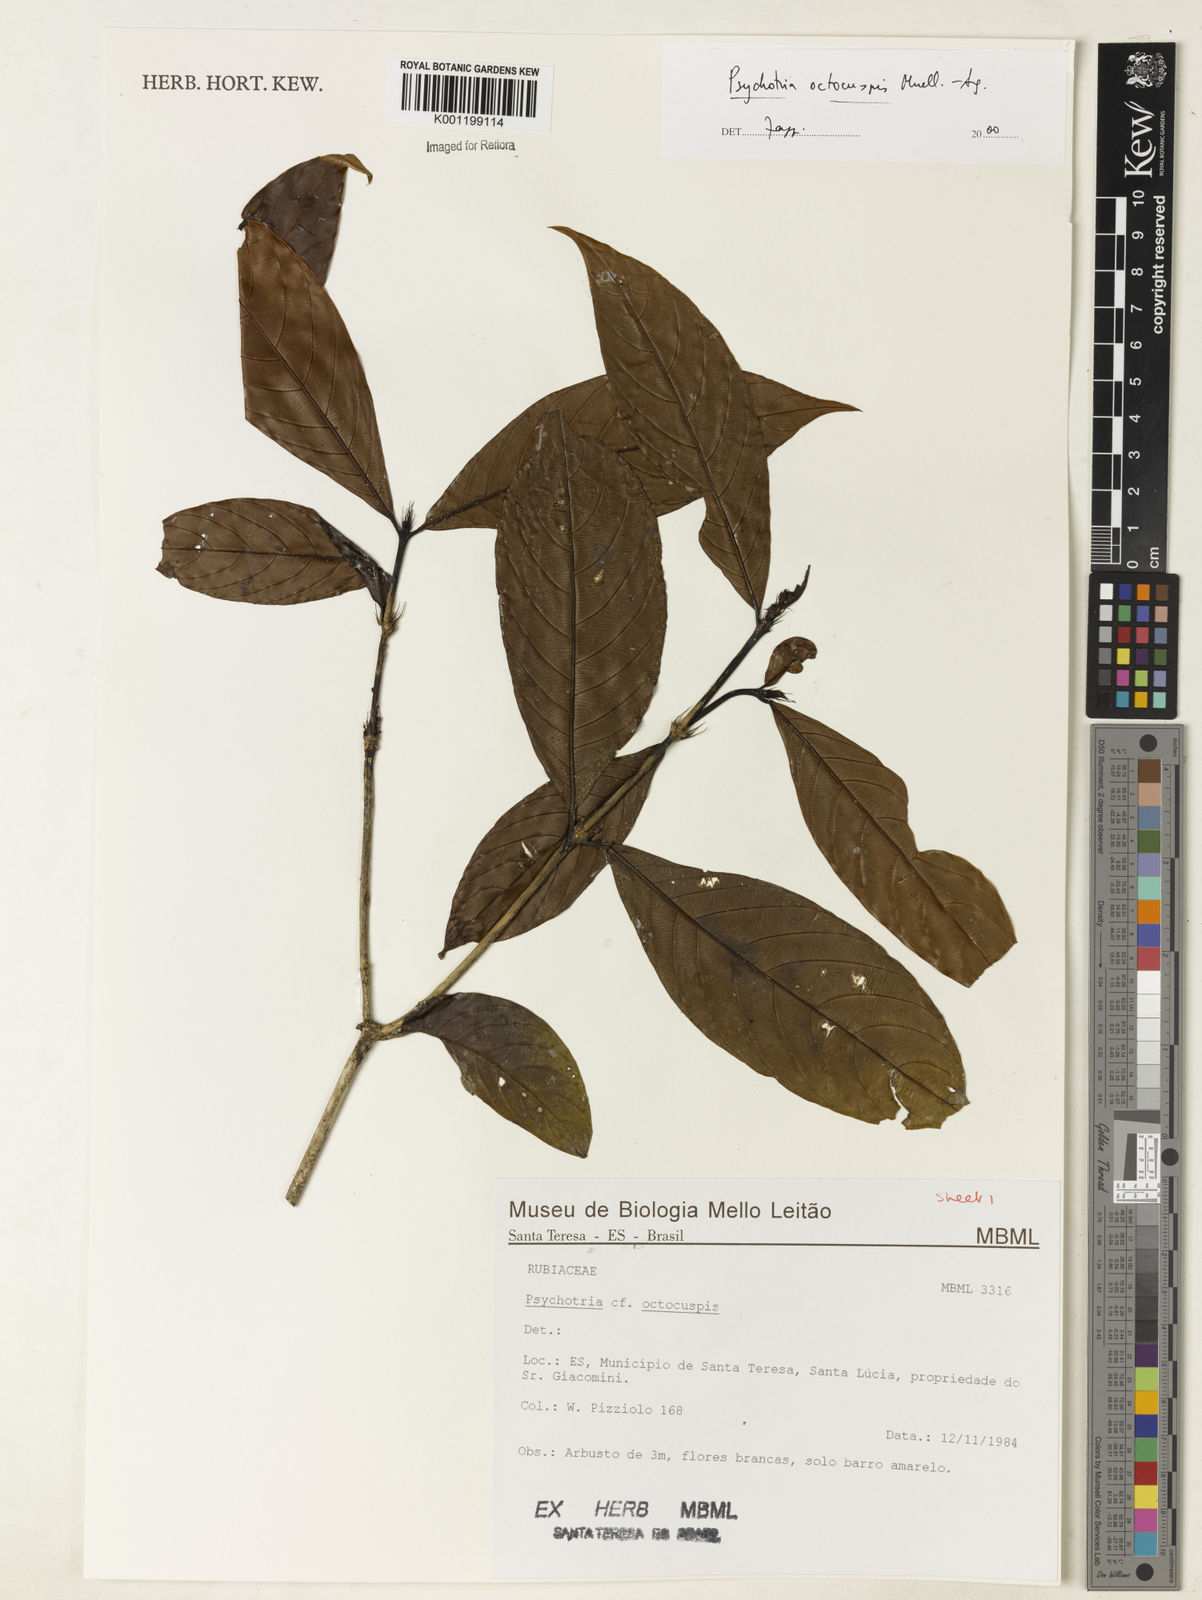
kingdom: Plantae
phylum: Tracheophyta
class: Magnoliopsida
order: Gentianales
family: Rubiaceae
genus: Psychotria
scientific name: Psychotria
